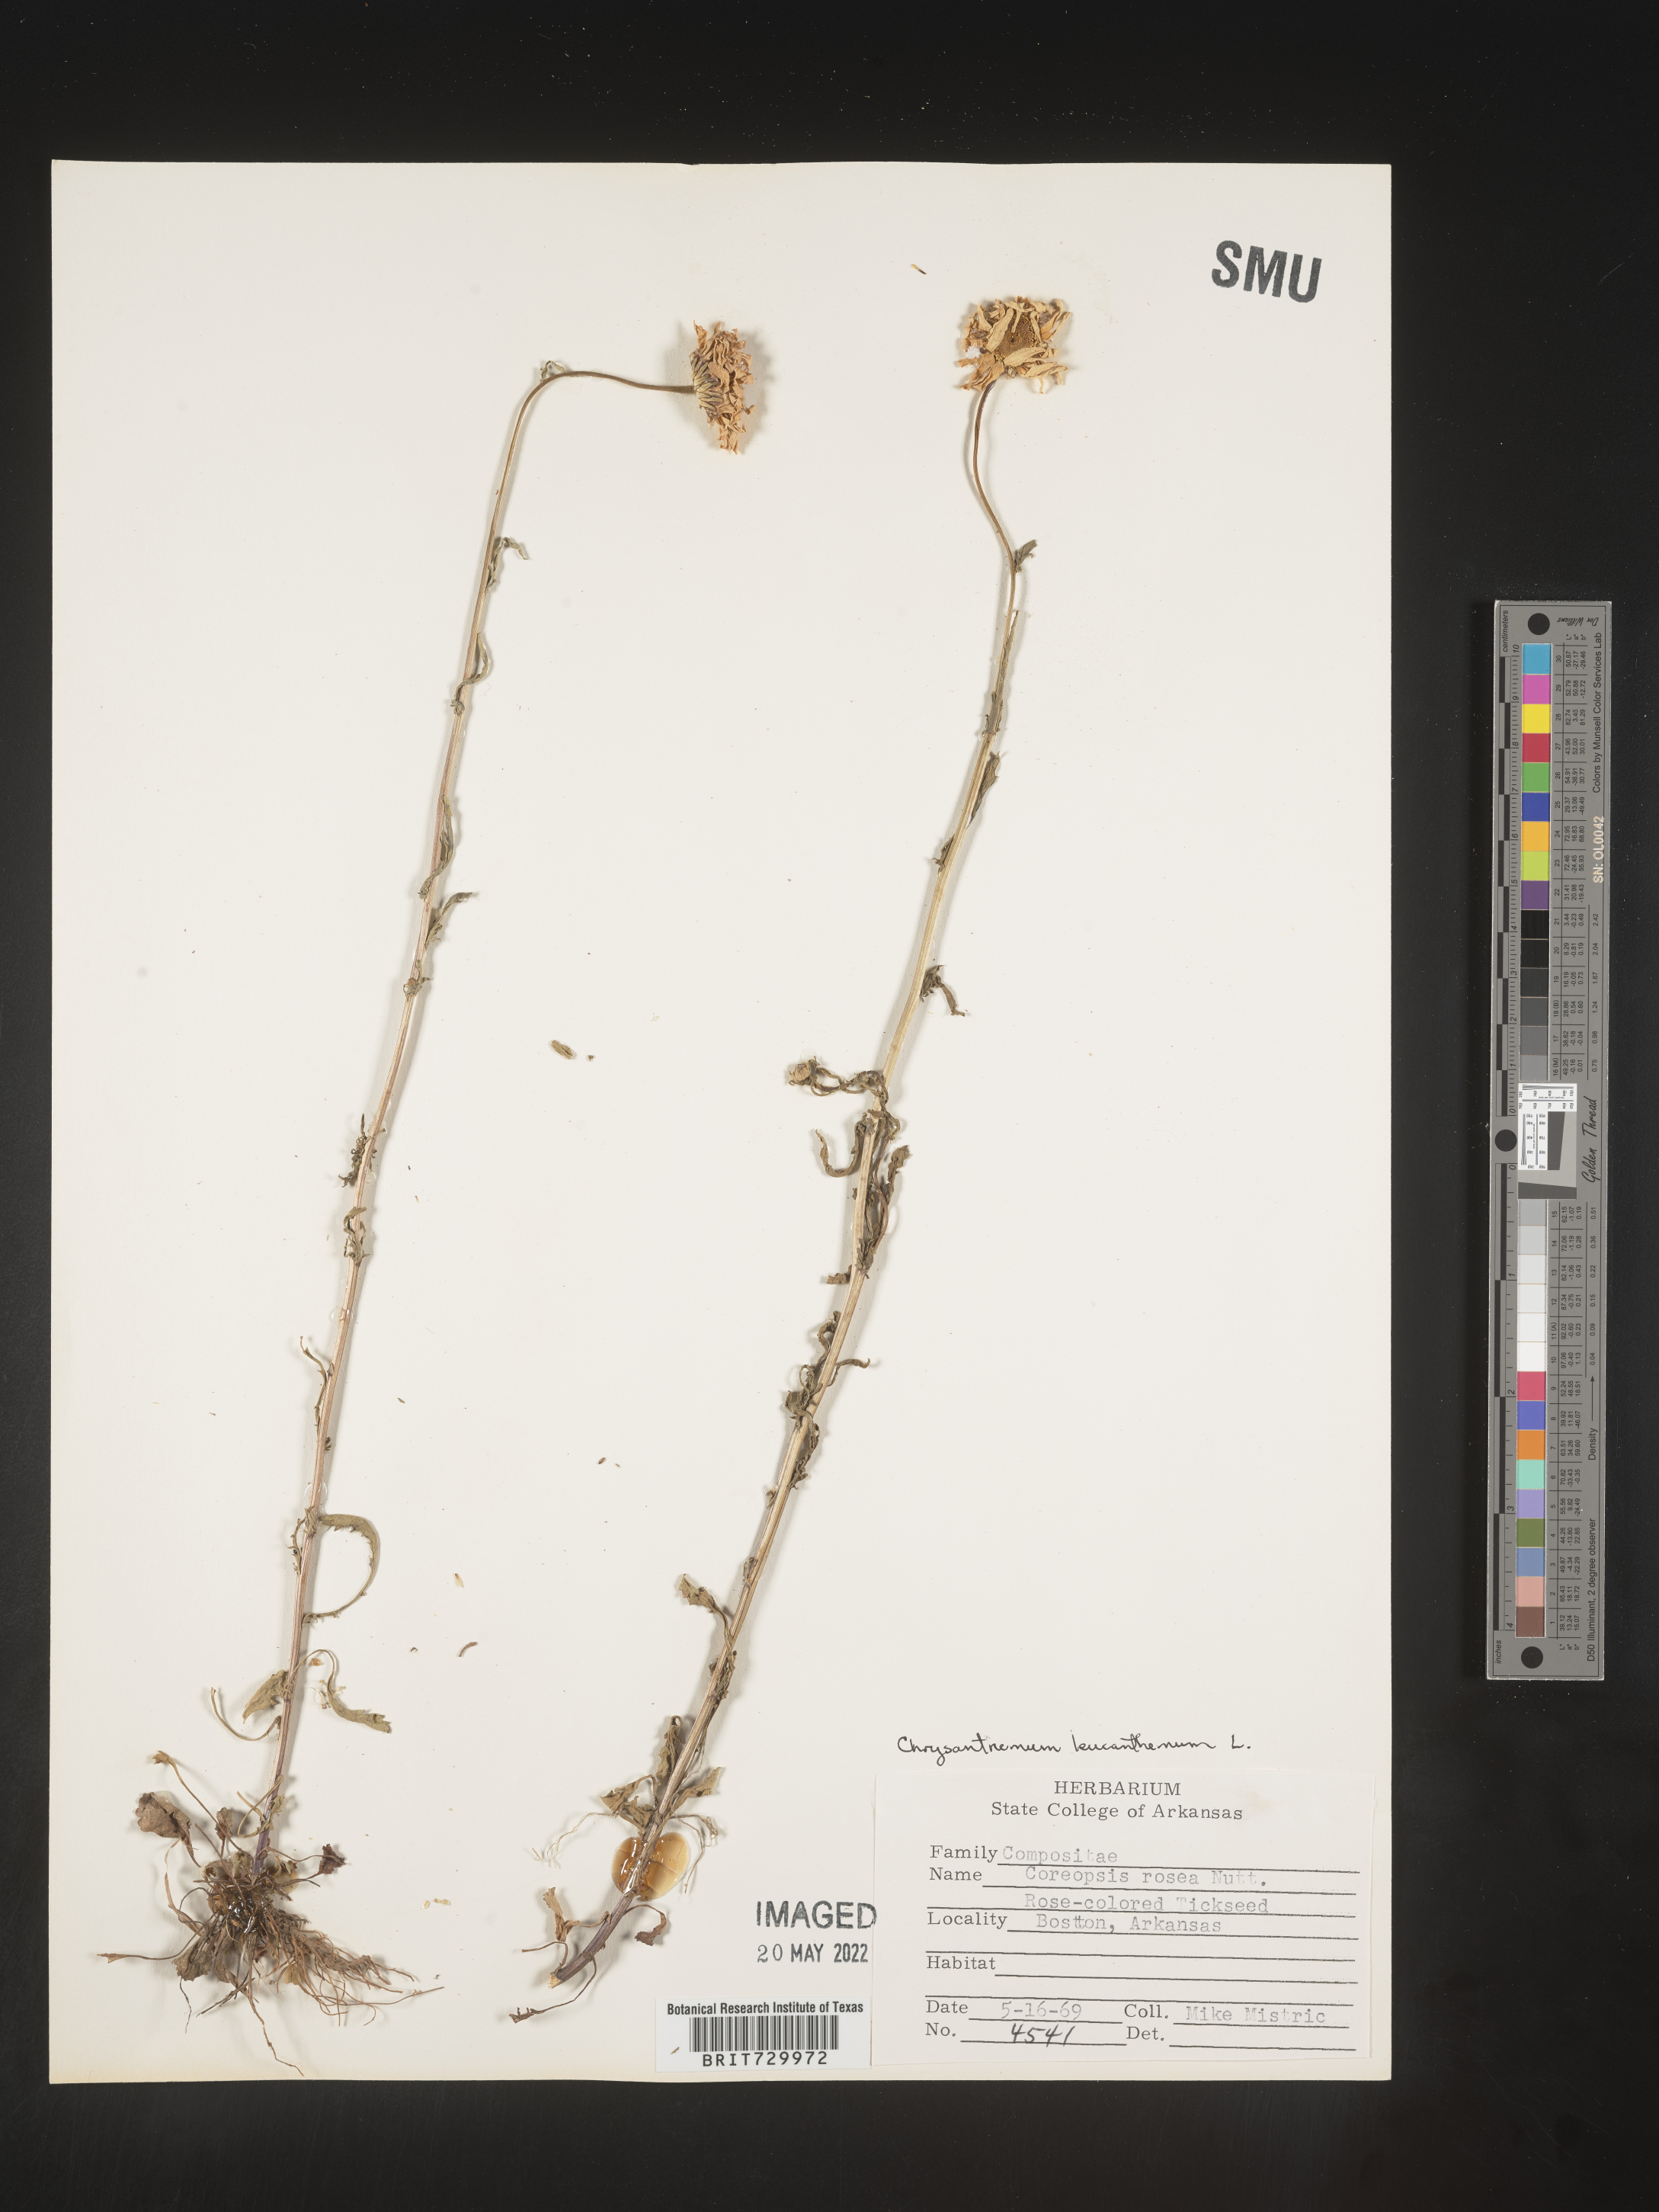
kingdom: Plantae
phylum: Tracheophyta
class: Magnoliopsida
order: Asterales
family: Asteraceae
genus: Leucanthemum
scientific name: Leucanthemum vulgare
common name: Oxeye daisy
